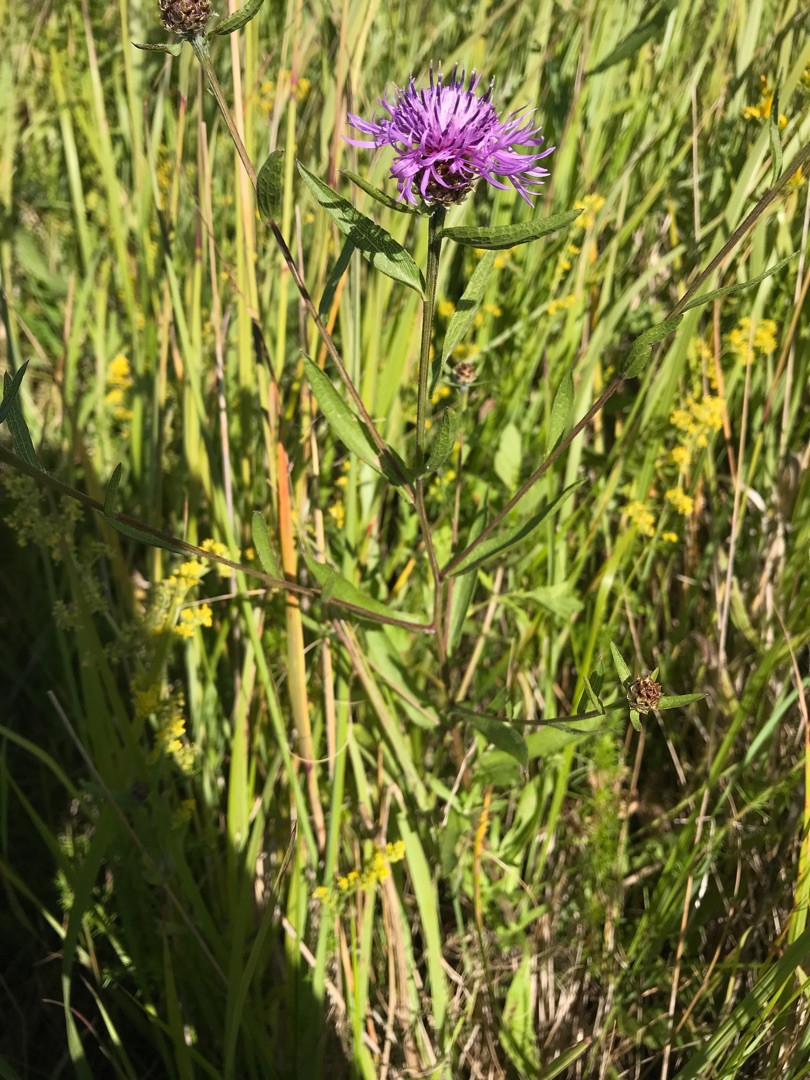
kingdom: Plantae
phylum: Tracheophyta
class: Magnoliopsida
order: Asterales
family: Asteraceae
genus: Centaurea
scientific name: Centaurea jacea
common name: Almindelig knopurt
